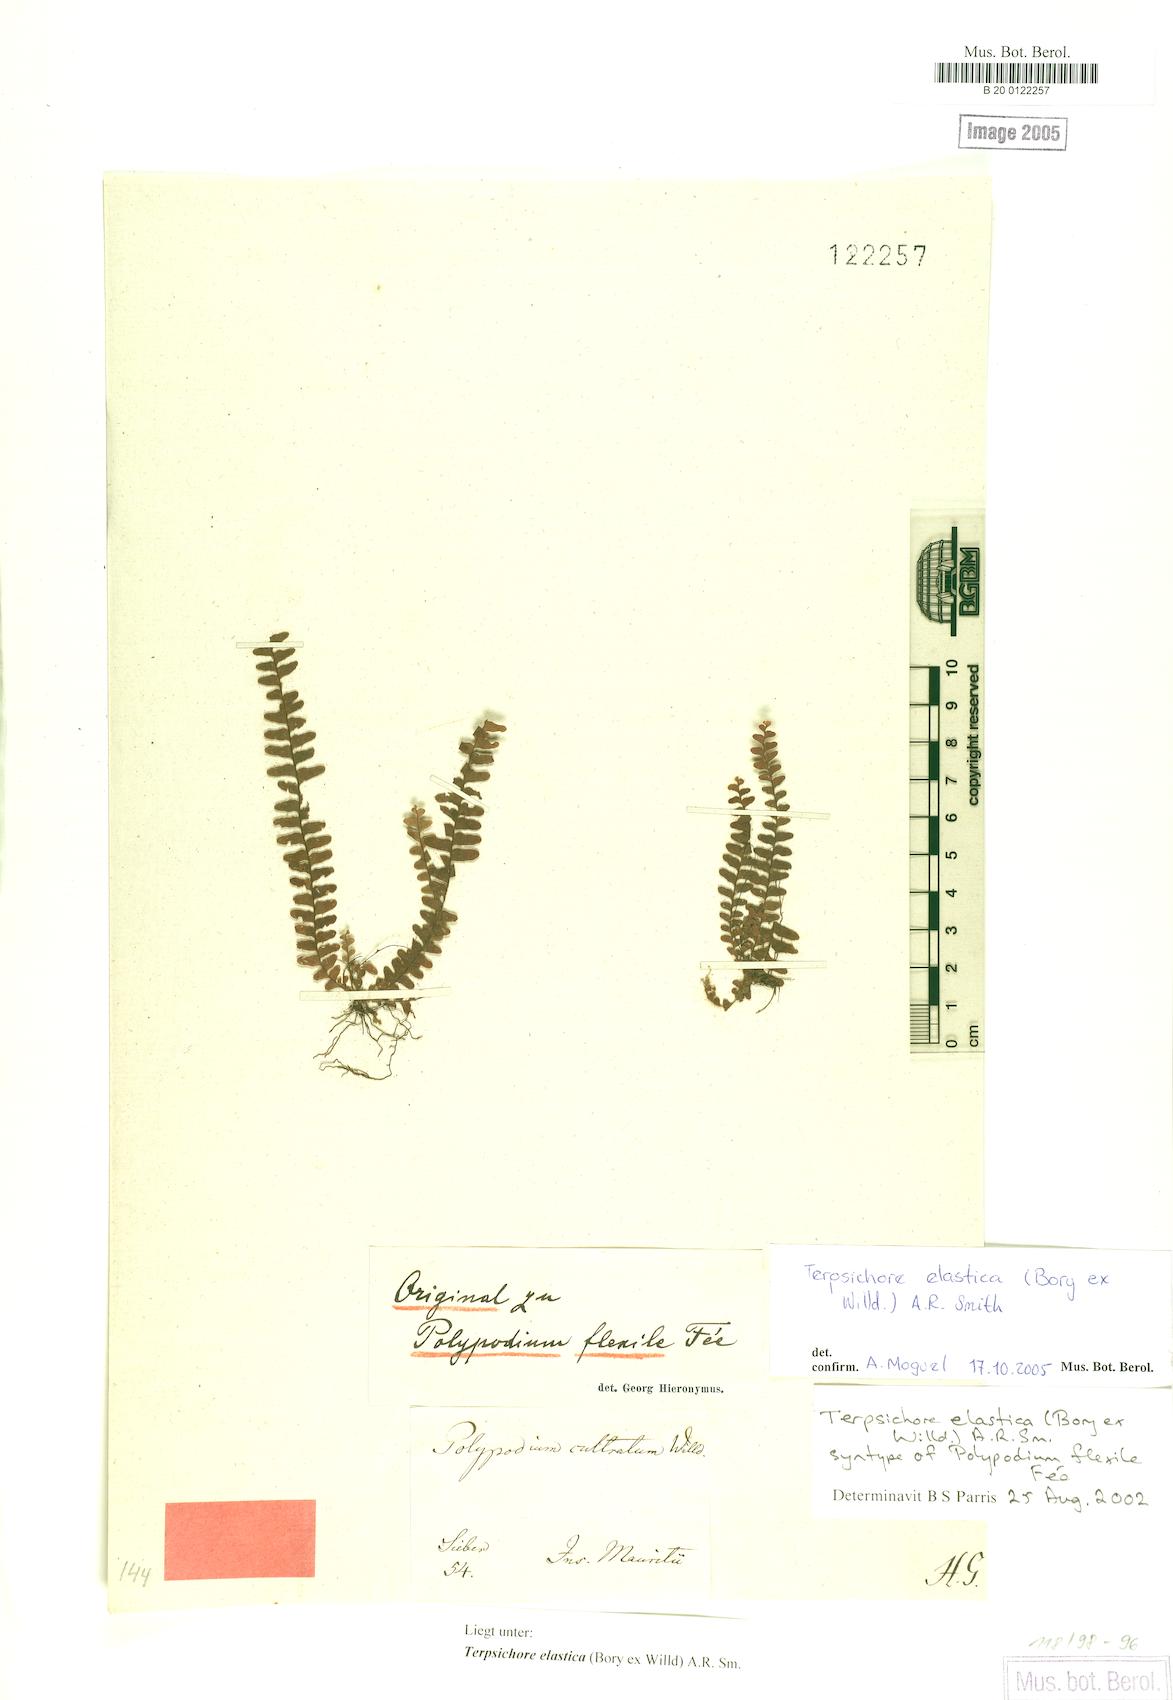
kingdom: Plantae
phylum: Tracheophyta
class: Polypodiopsida
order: Polypodiales
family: Polypodiaceae
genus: Alansmia
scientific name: Alansmia elastica
